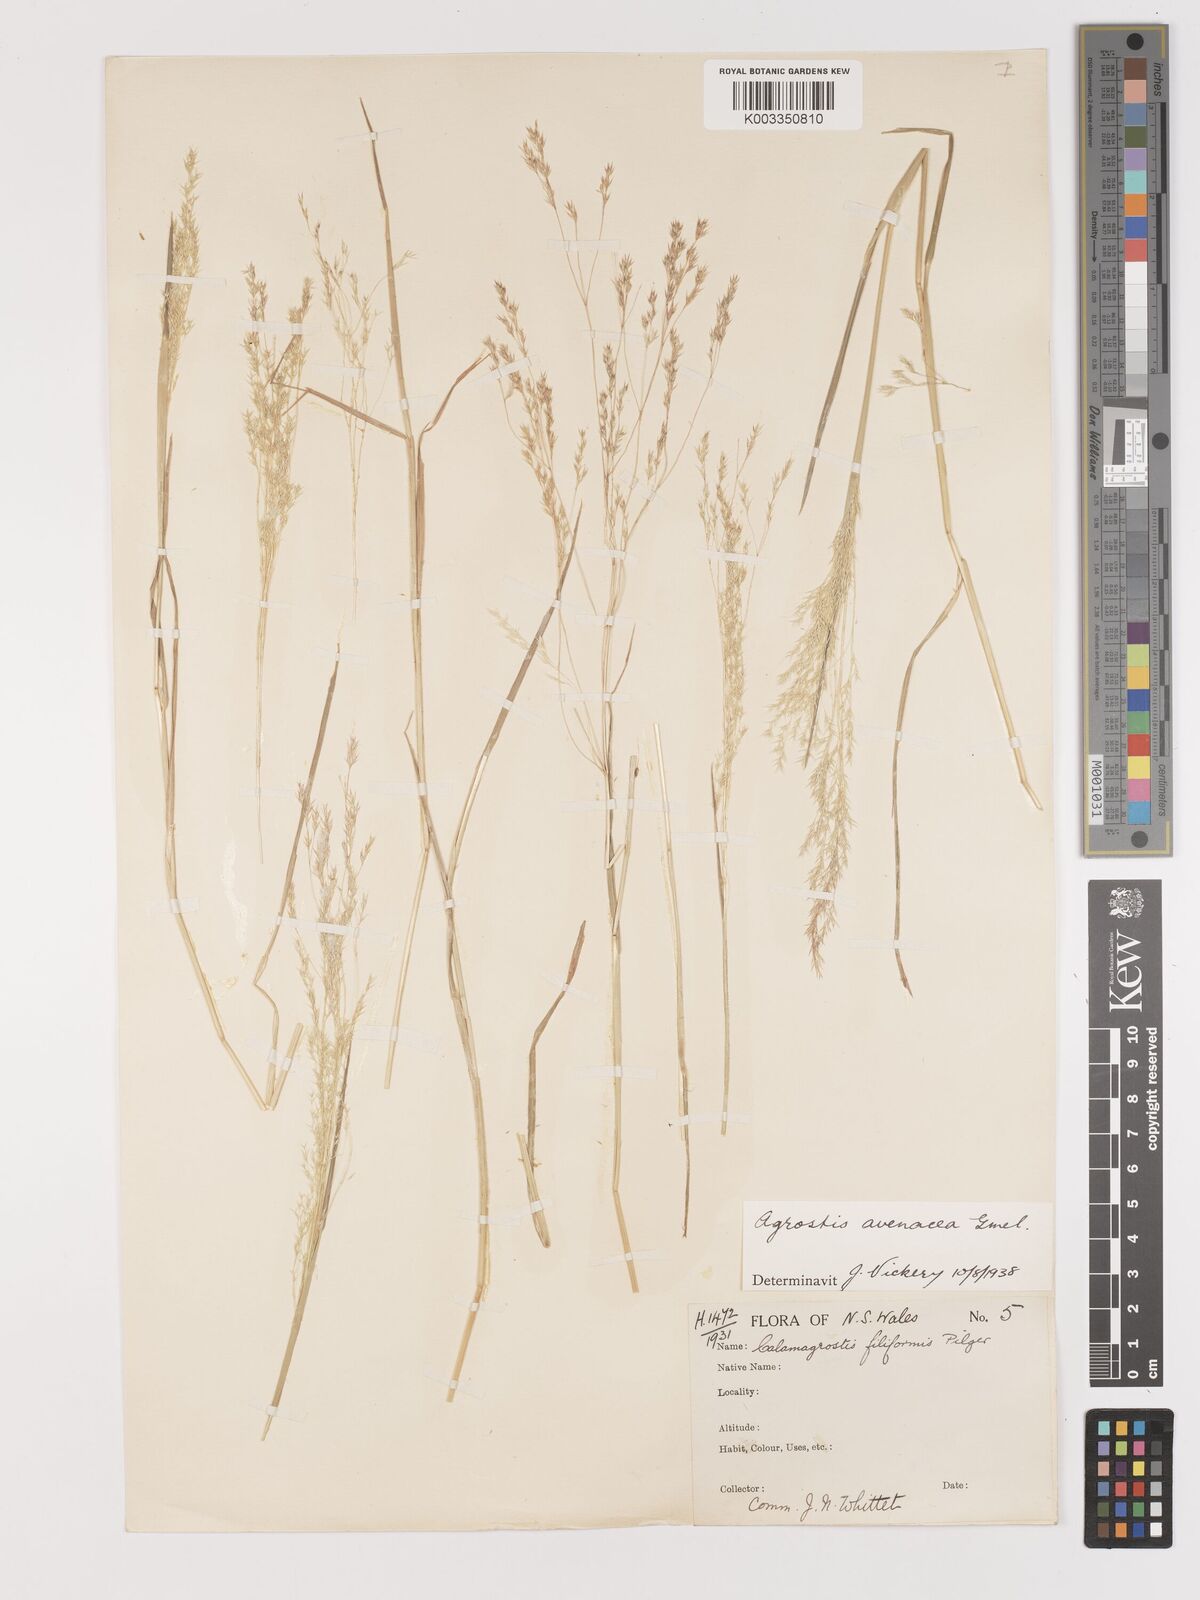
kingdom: Plantae
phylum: Tracheophyta
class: Liliopsida
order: Poales
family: Poaceae
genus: Lachnagrostis
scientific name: Lachnagrostis filiformis
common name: Bentgrass
